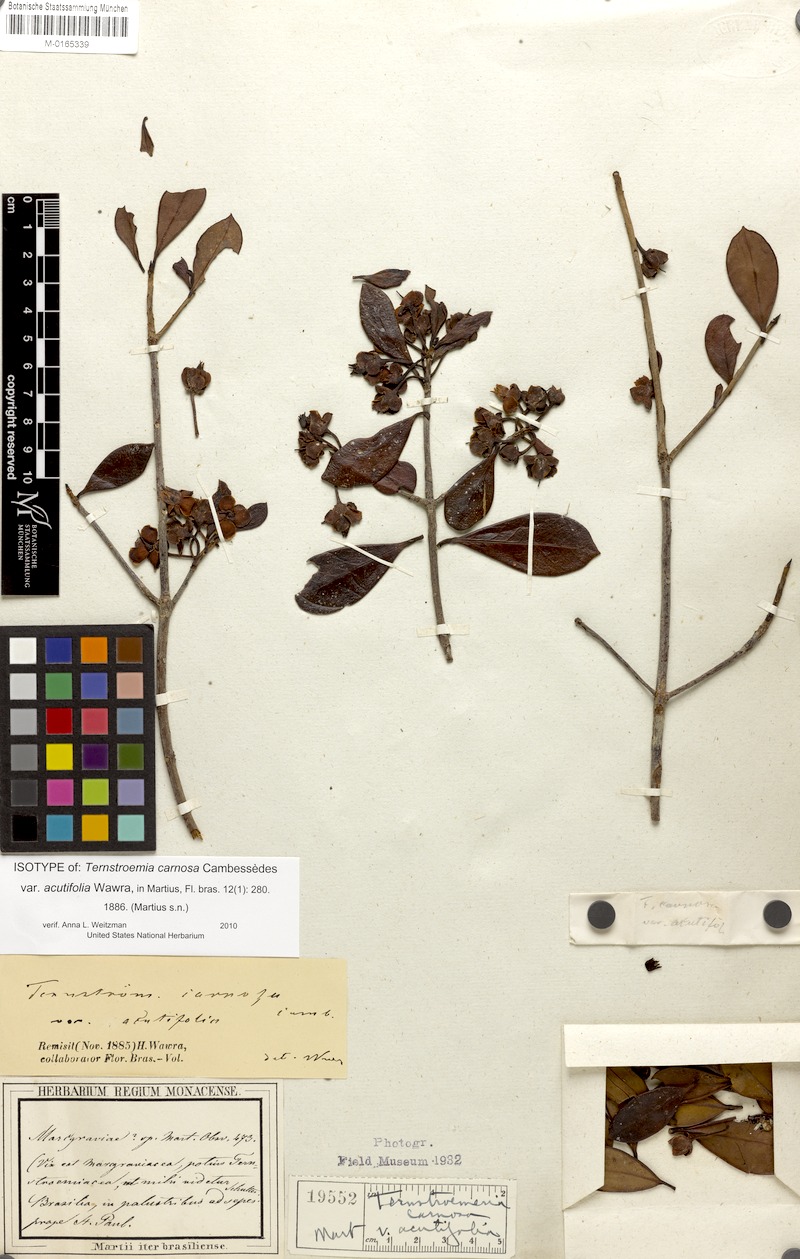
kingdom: Plantae
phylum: Tracheophyta
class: Magnoliopsida
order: Ericales
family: Pentaphylacaceae
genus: Ternstroemia
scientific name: Ternstroemia brasiliensis
